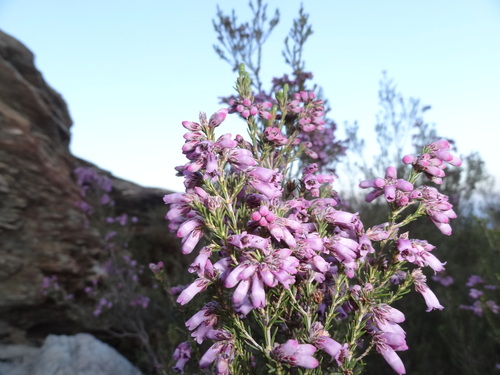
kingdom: Plantae
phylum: Tracheophyta
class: Magnoliopsida
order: Ericales
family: Ericaceae
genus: Erica
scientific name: Erica australis
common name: Spanish heath
